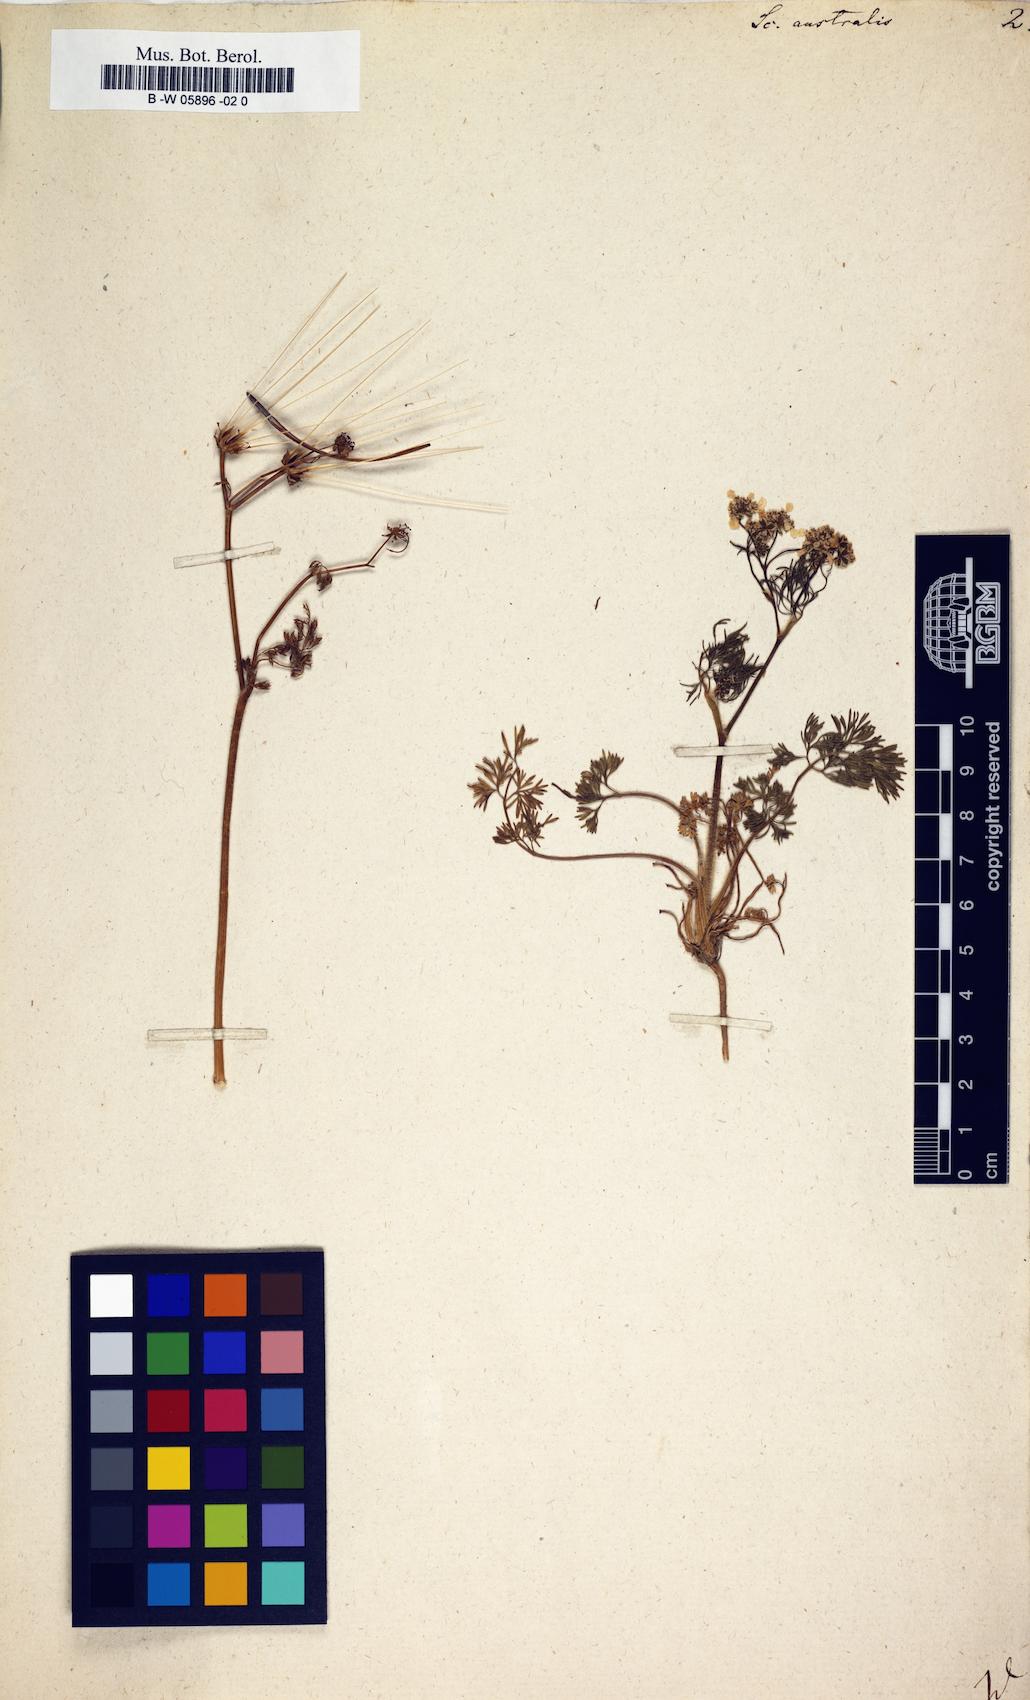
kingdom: Plantae
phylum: Tracheophyta
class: Magnoliopsida
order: Apiales
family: Apiaceae
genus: Scandix
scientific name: Scandix australis
